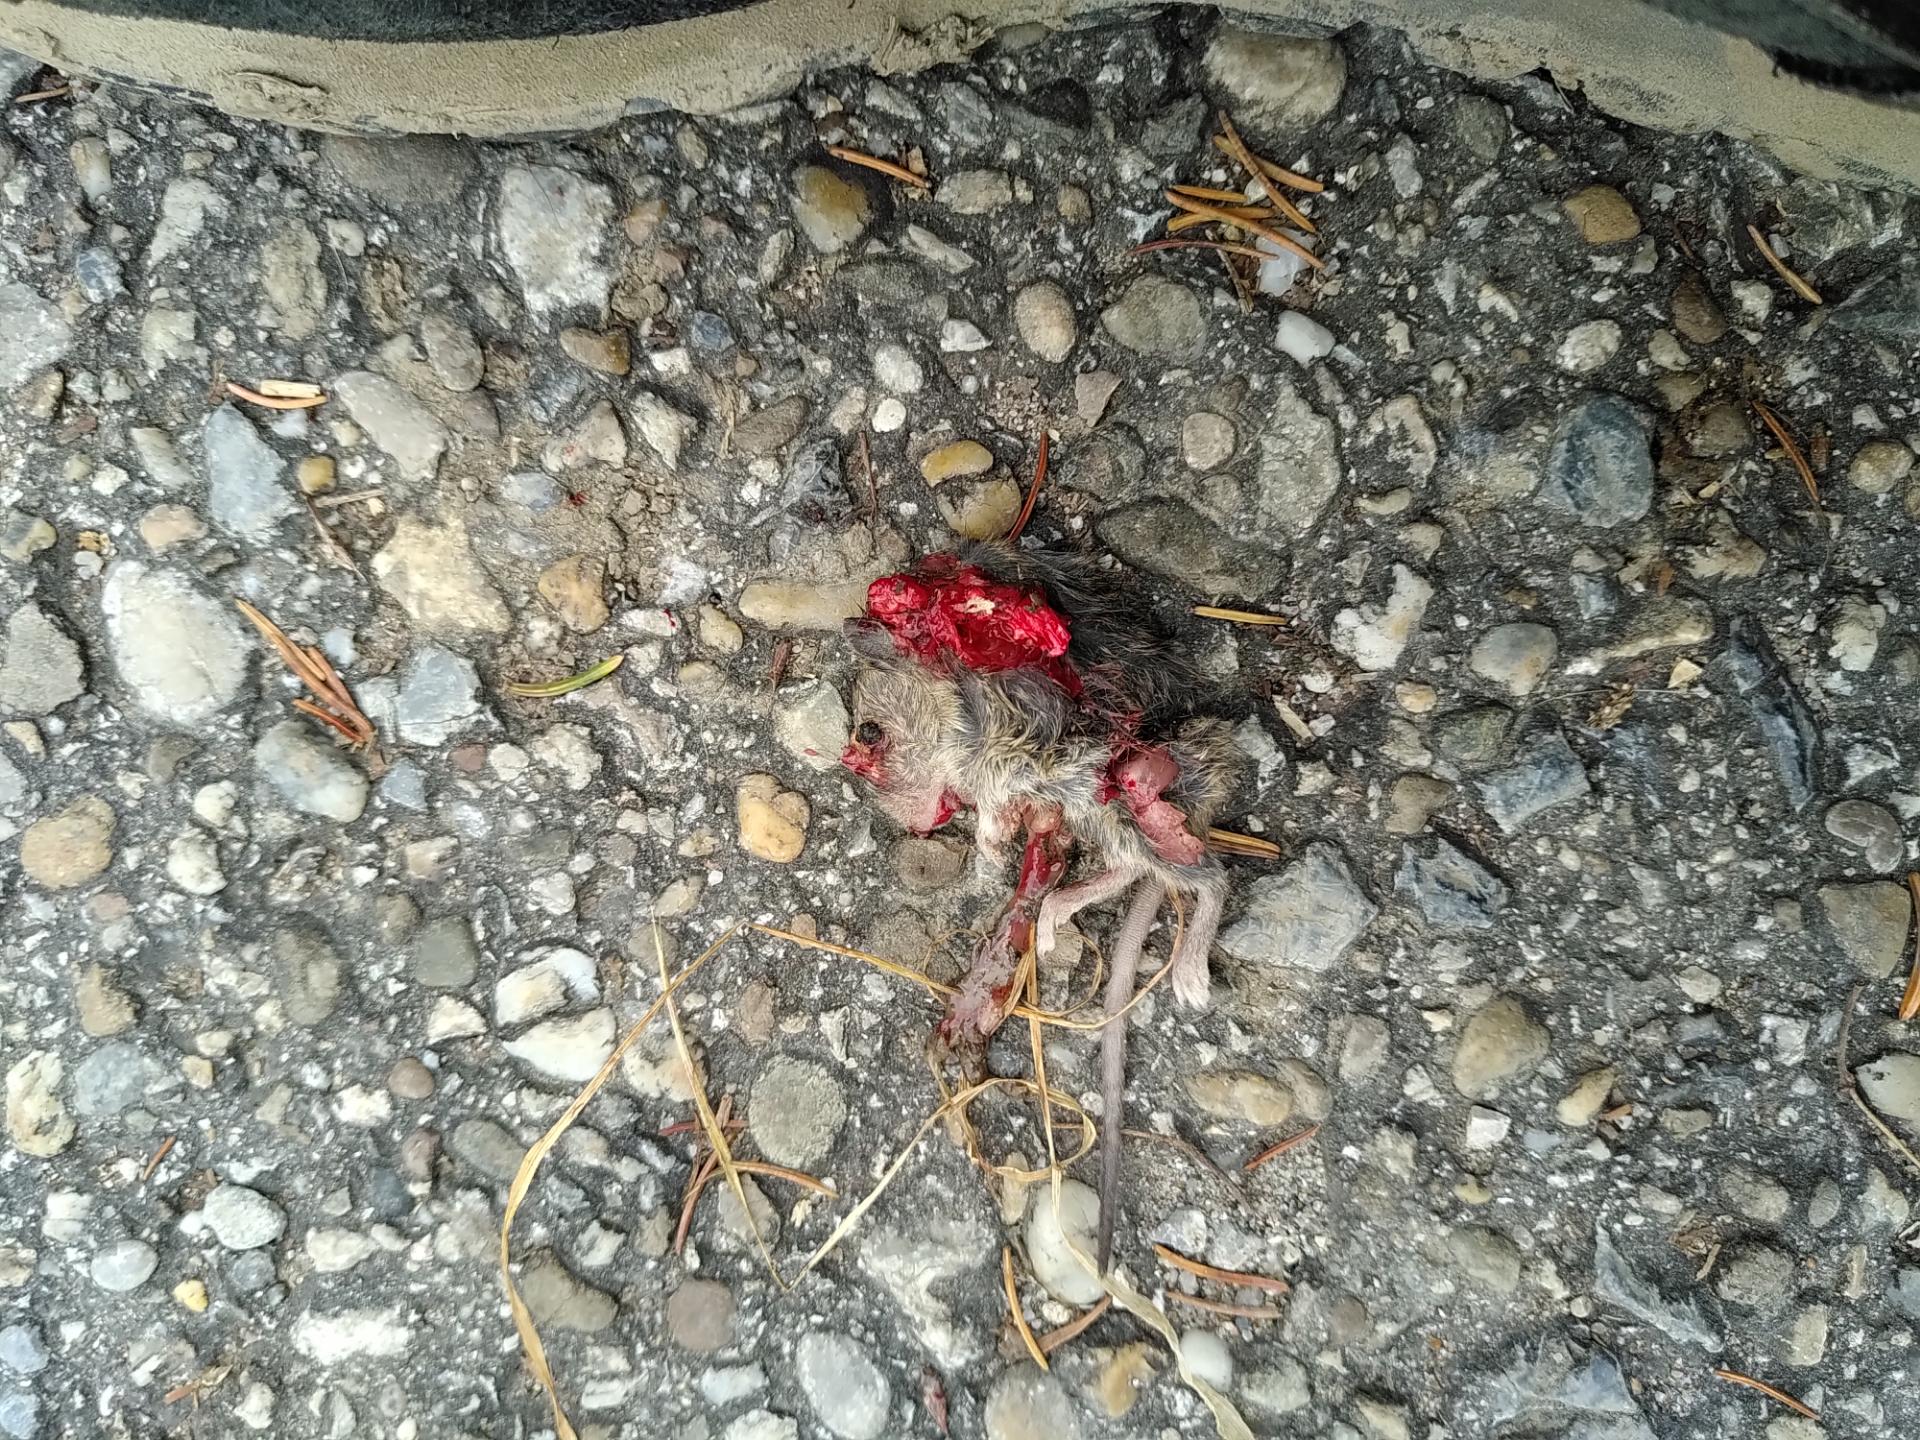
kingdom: Animalia
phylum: Chordata
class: Mammalia
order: Rodentia
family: Muridae
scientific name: Muridae
